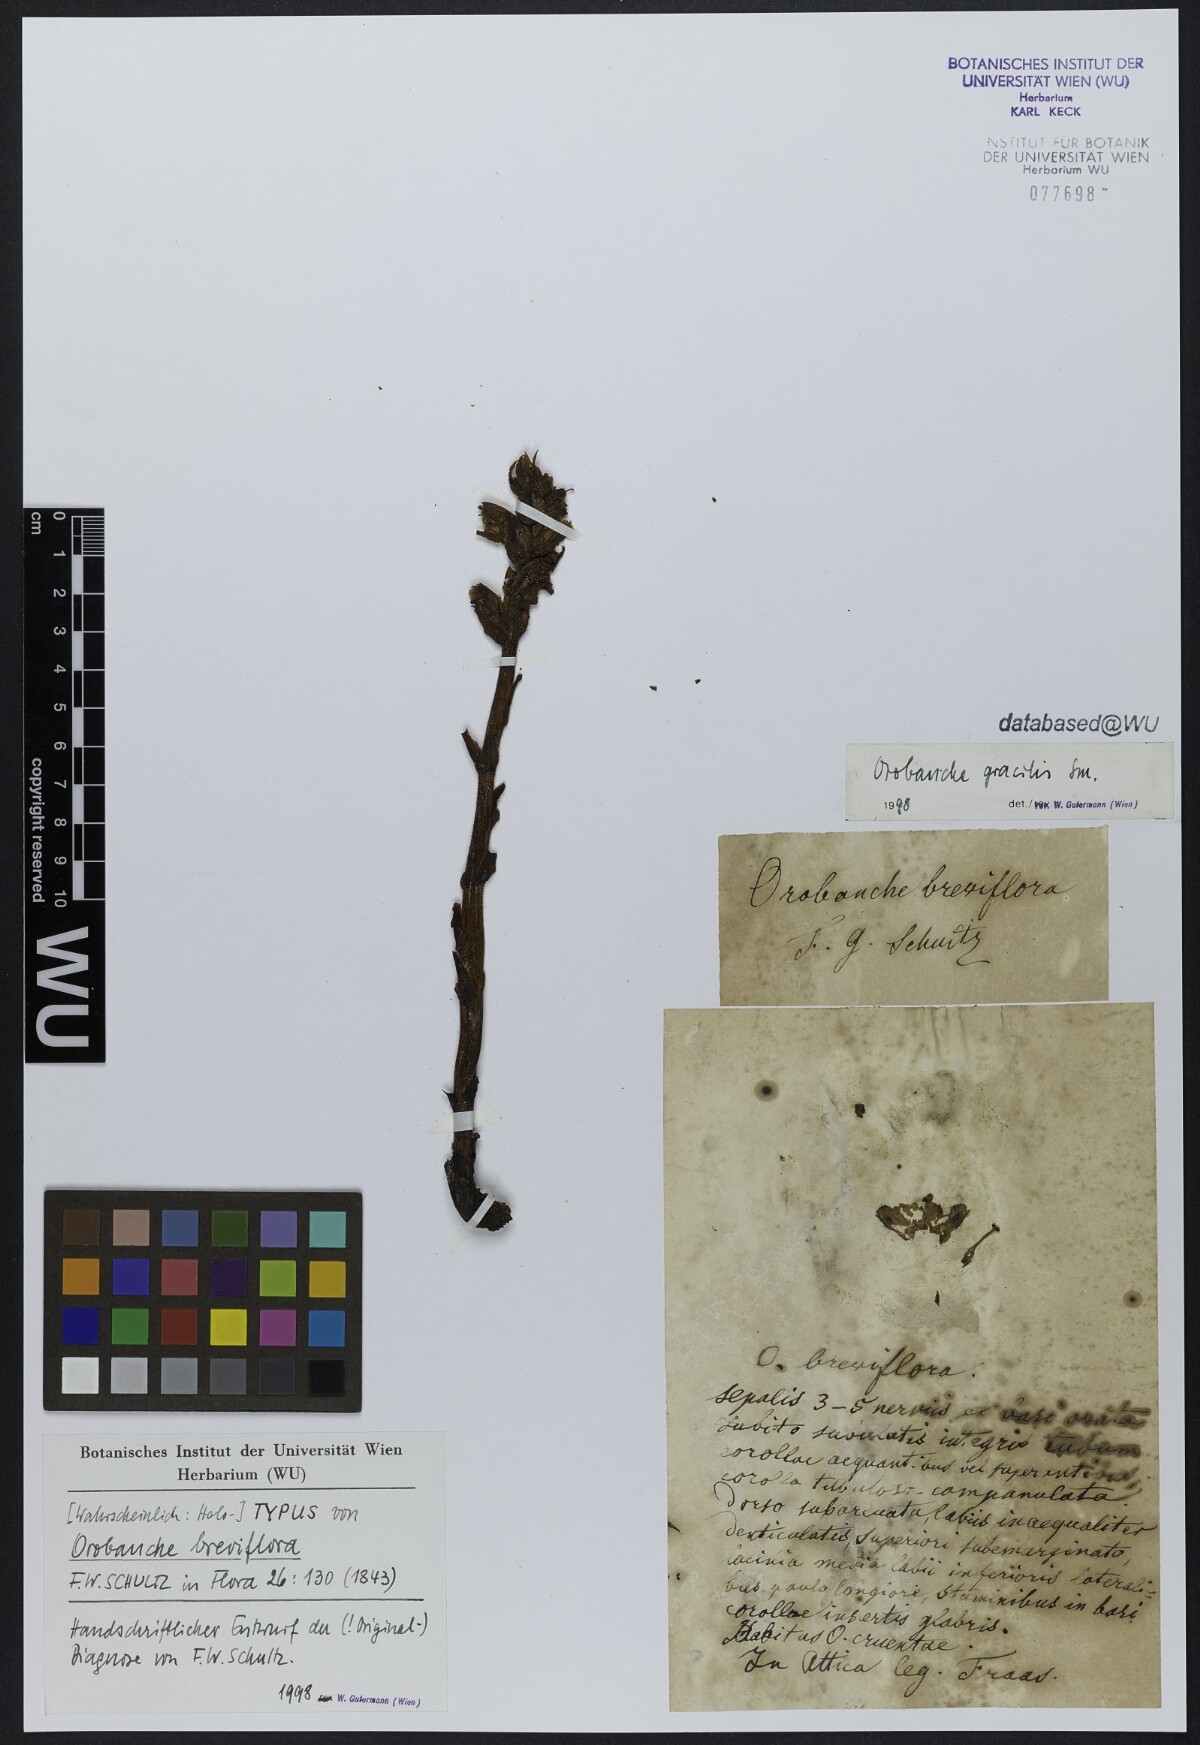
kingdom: Plantae
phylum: Tracheophyta
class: Magnoliopsida
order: Lamiales
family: Orobanchaceae
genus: Orobanche
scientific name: Orobanche gracilis
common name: Slender broomrape
